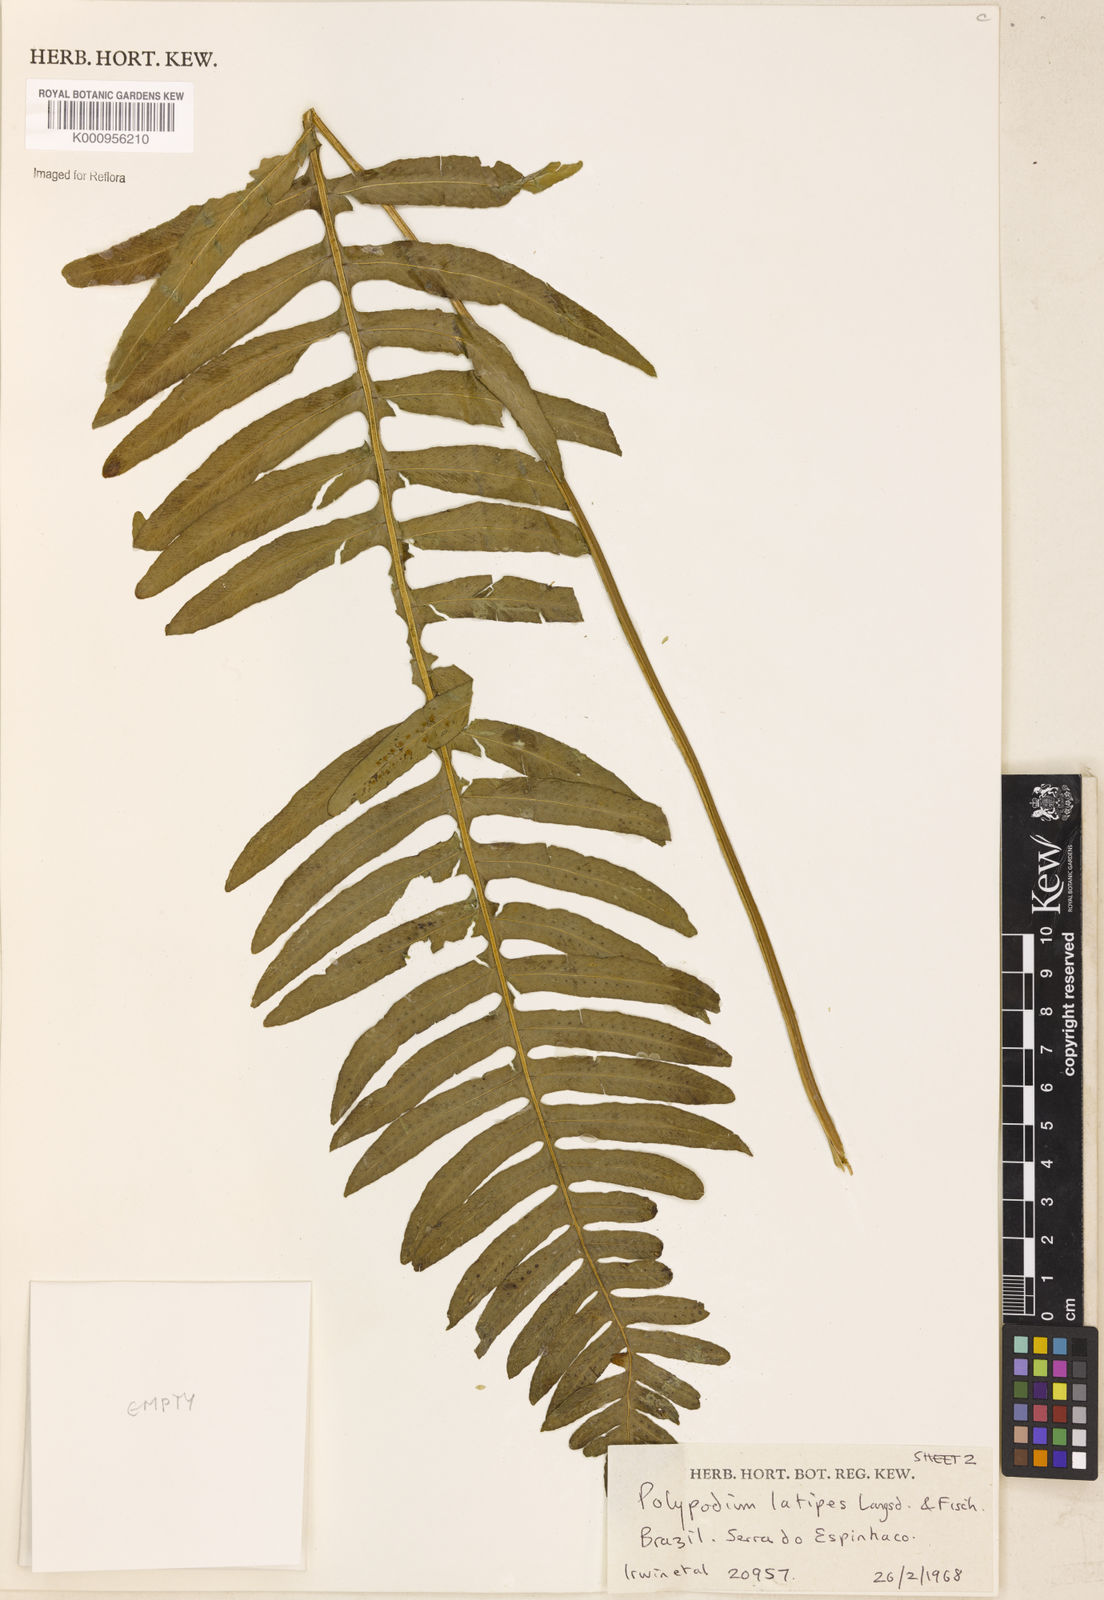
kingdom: Plantae
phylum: Tracheophyta
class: Polypodiopsida
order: Polypodiales
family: Polypodiaceae
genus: Serpocaulon
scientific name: Serpocaulon latipes
